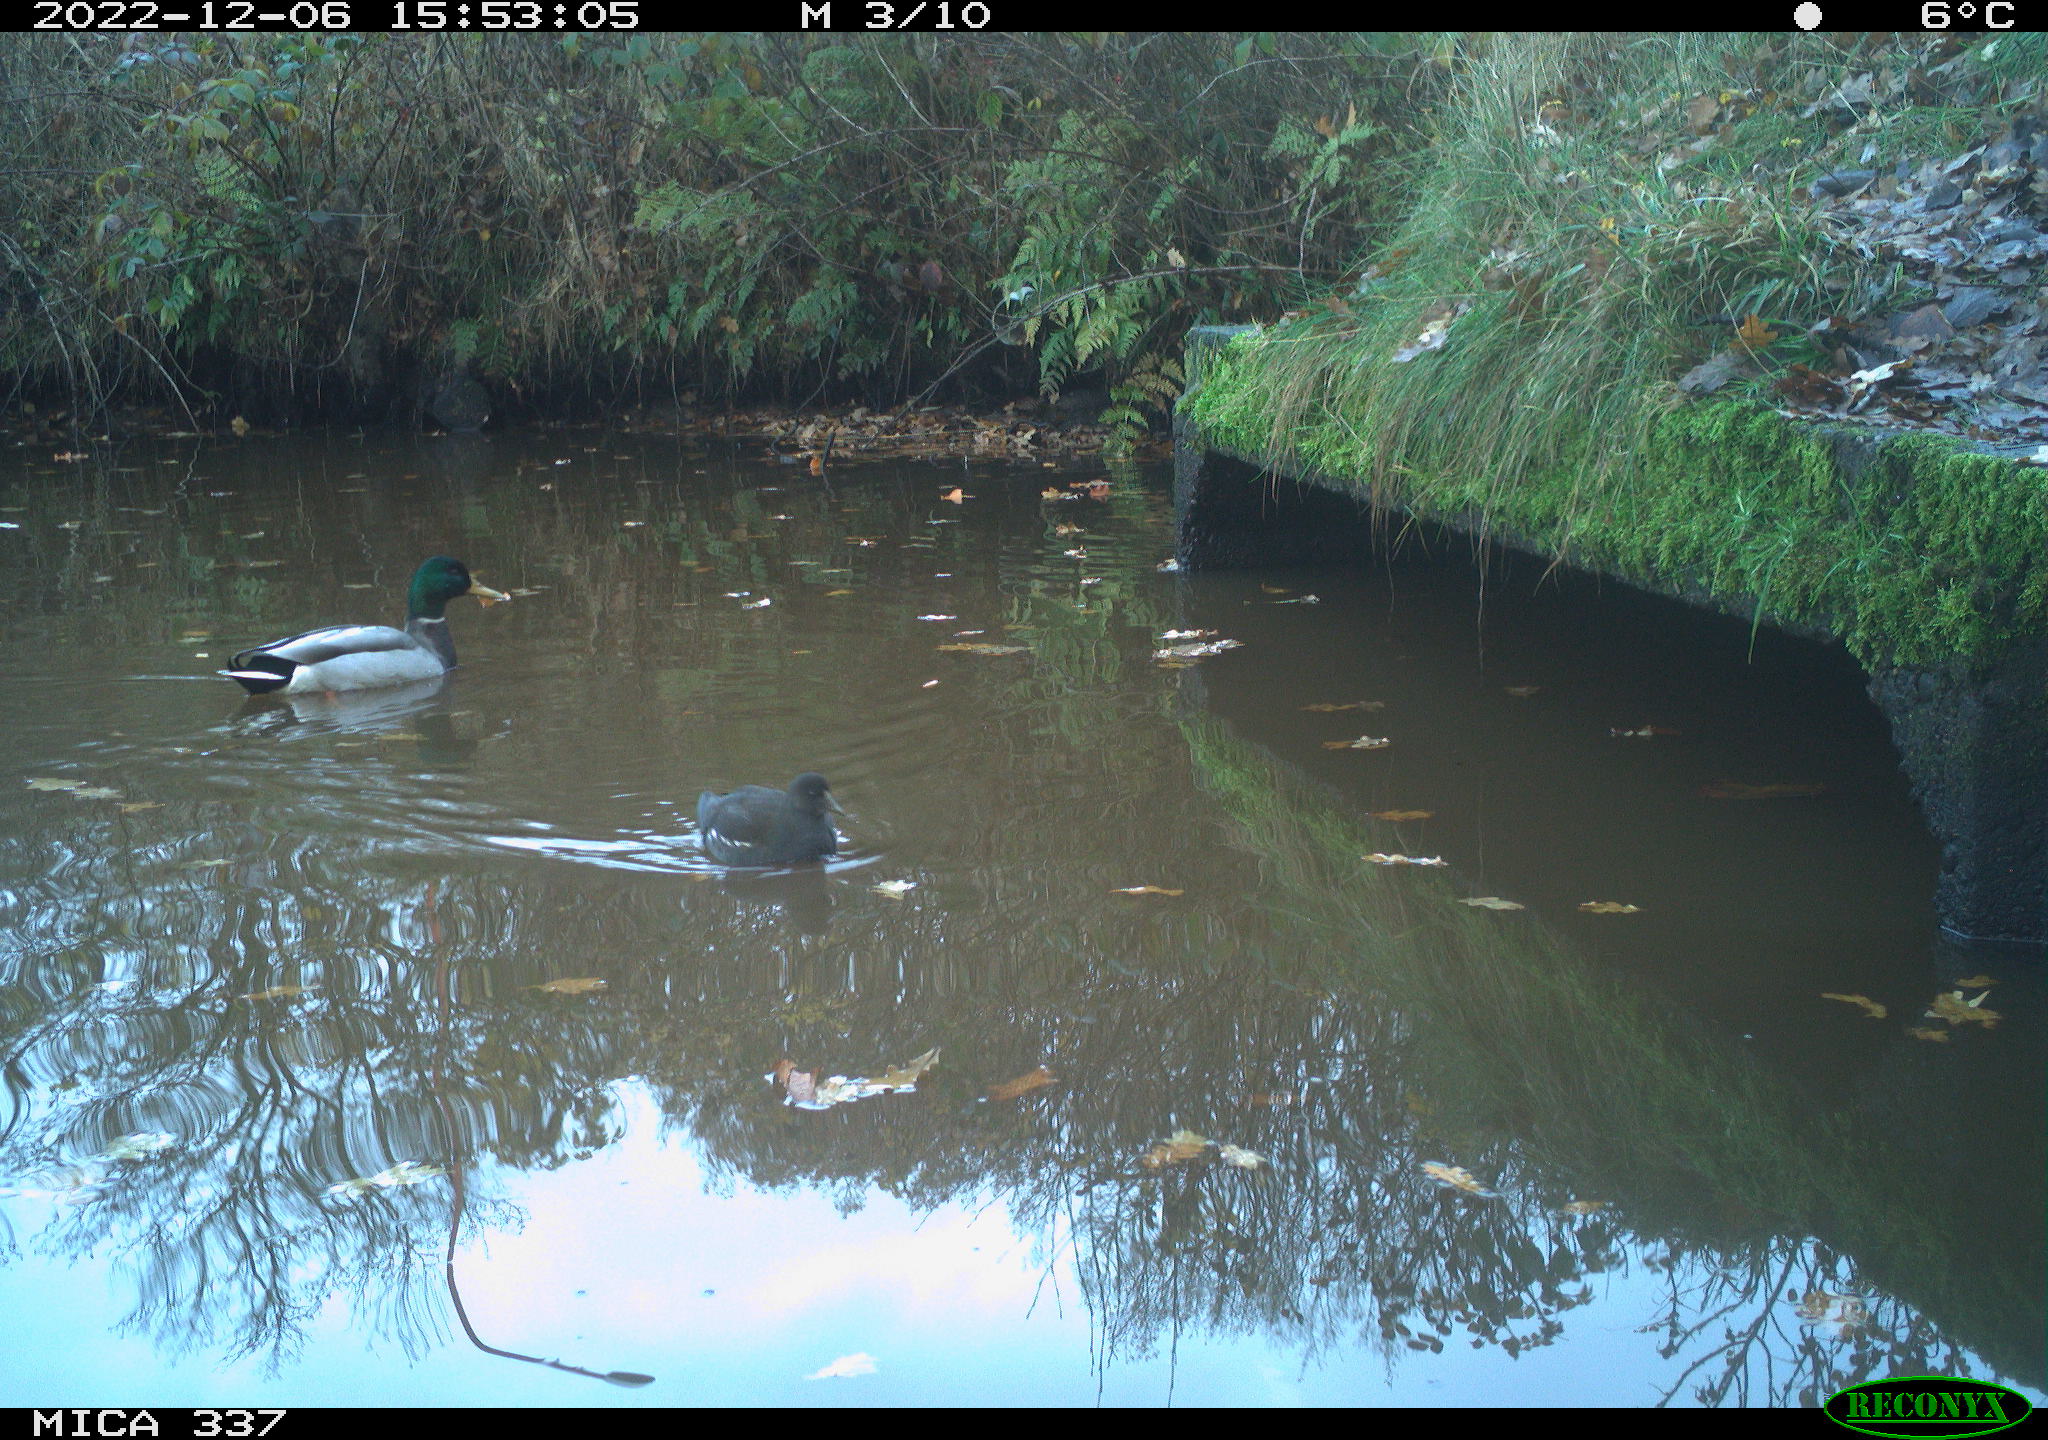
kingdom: Animalia
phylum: Chordata
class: Aves
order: Anseriformes
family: Anatidae
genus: Anas
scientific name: Anas
